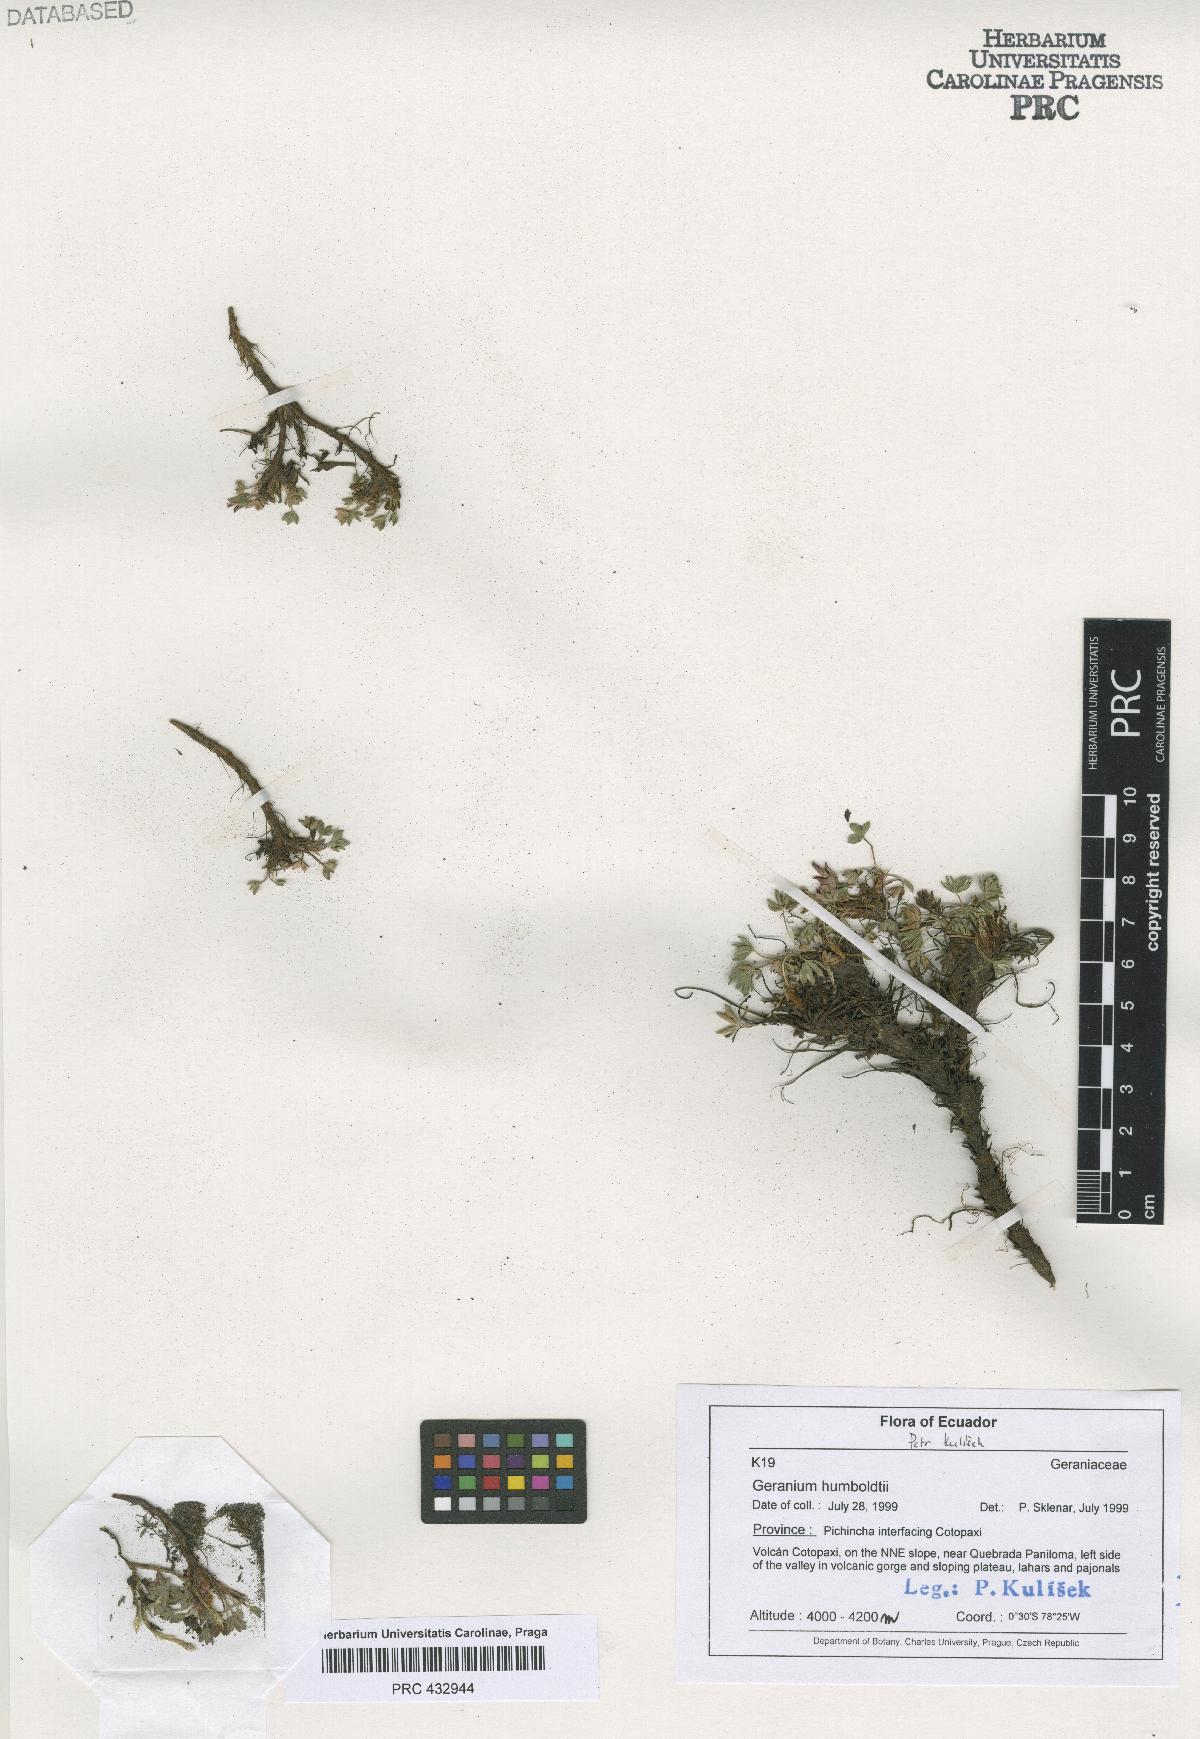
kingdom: Plantae
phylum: Tracheophyta
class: Magnoliopsida
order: Geraniales
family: Geraniaceae
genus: Geranium
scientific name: Geranium humboldtii
